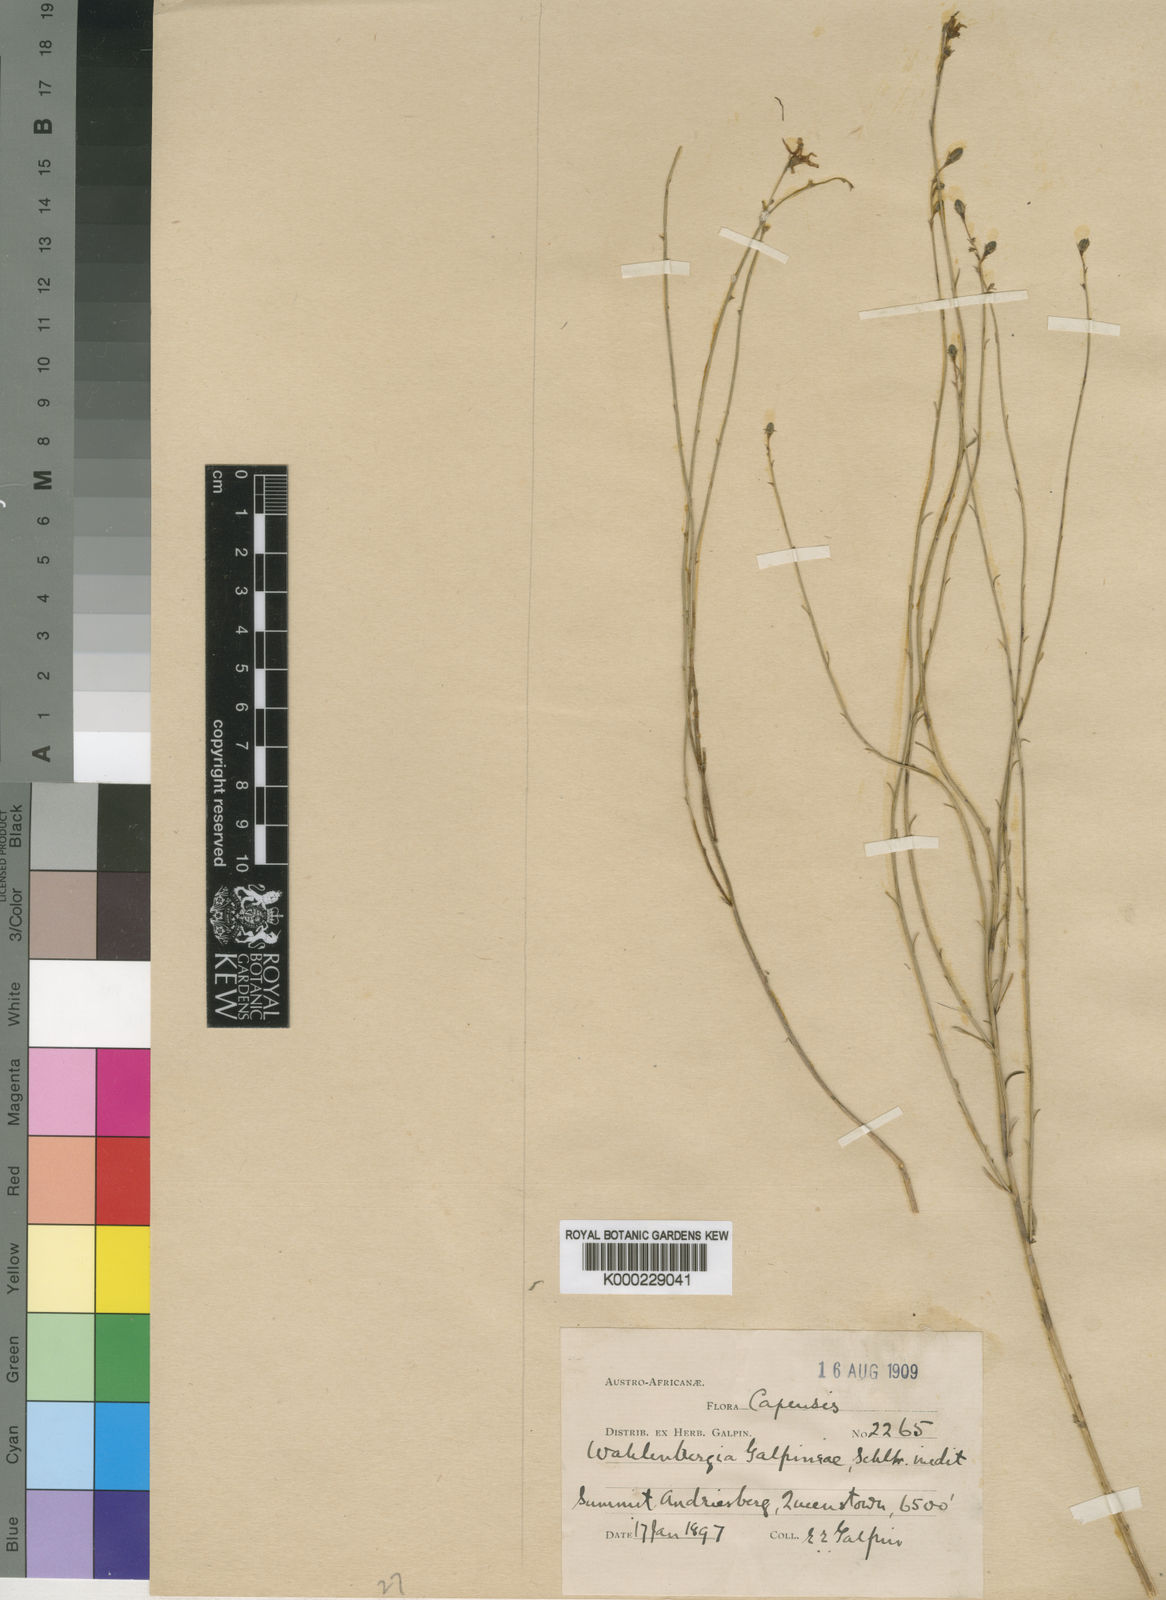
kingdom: Plantae
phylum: Tracheophyta
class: Magnoliopsida
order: Asterales
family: Campanulaceae
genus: Wahlenbergia
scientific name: Wahlenbergia galpiniae
